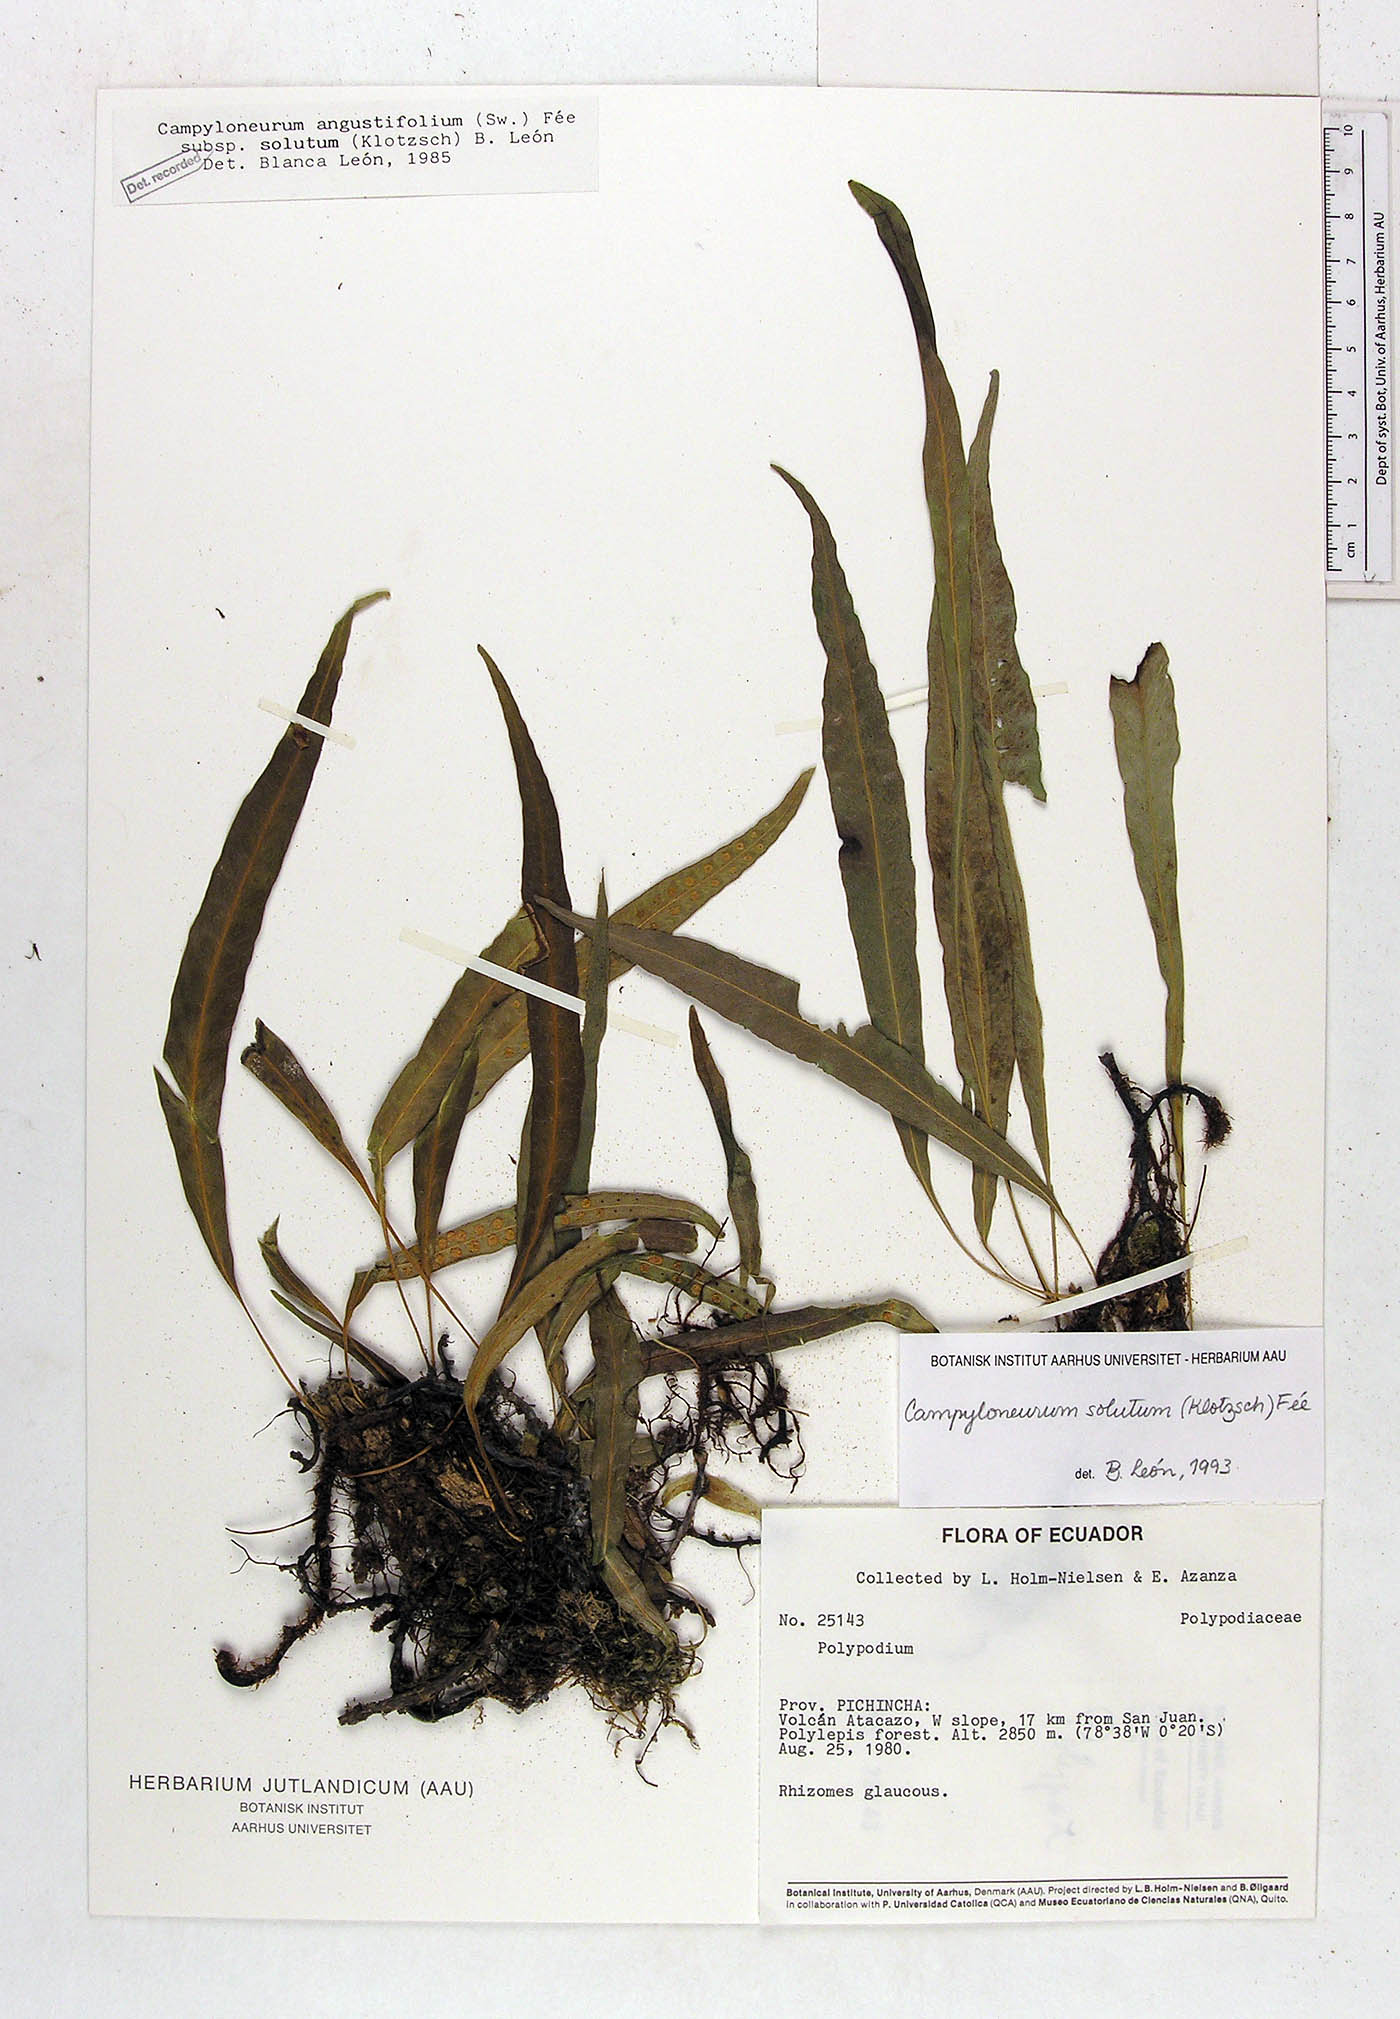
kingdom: Plantae
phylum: Tracheophyta
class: Polypodiopsida
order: Polypodiales
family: Polypodiaceae
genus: Campyloneurum
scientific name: Campyloneurum solutum
